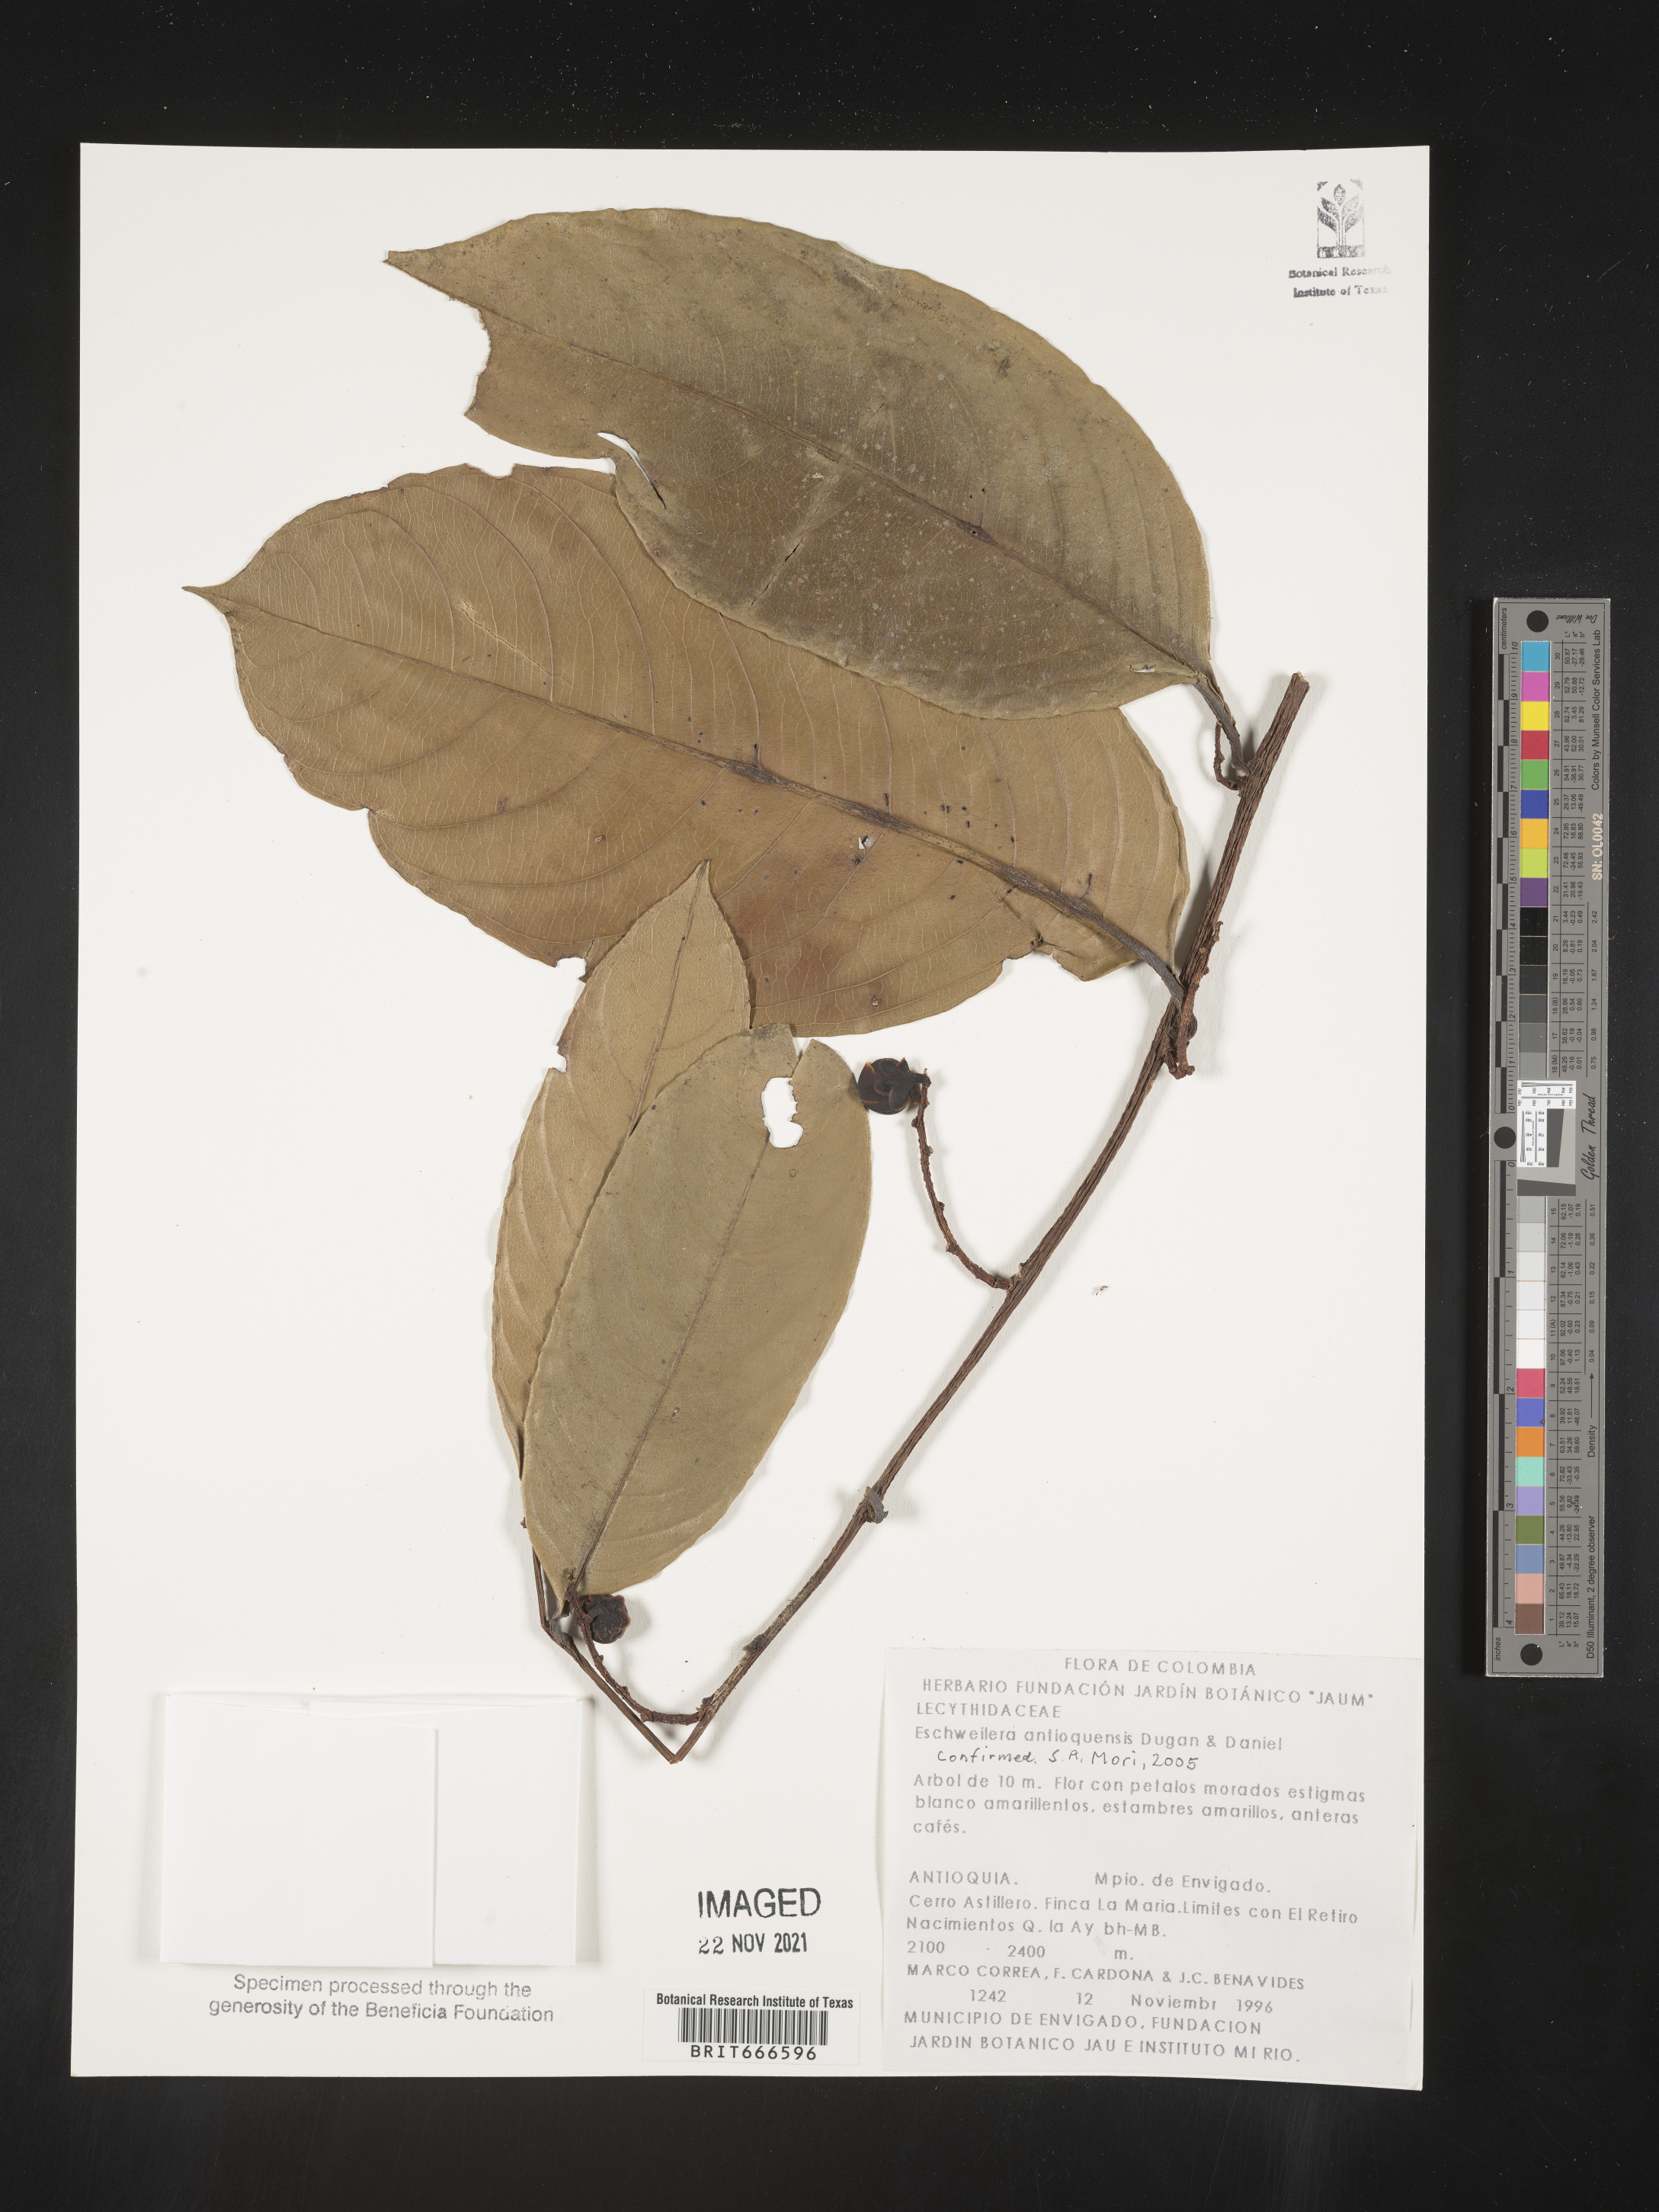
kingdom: Plantae
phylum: Tracheophyta
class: Magnoliopsida
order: Ericales
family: Lecythidaceae
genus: Eschweilera
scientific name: Eschweilera
